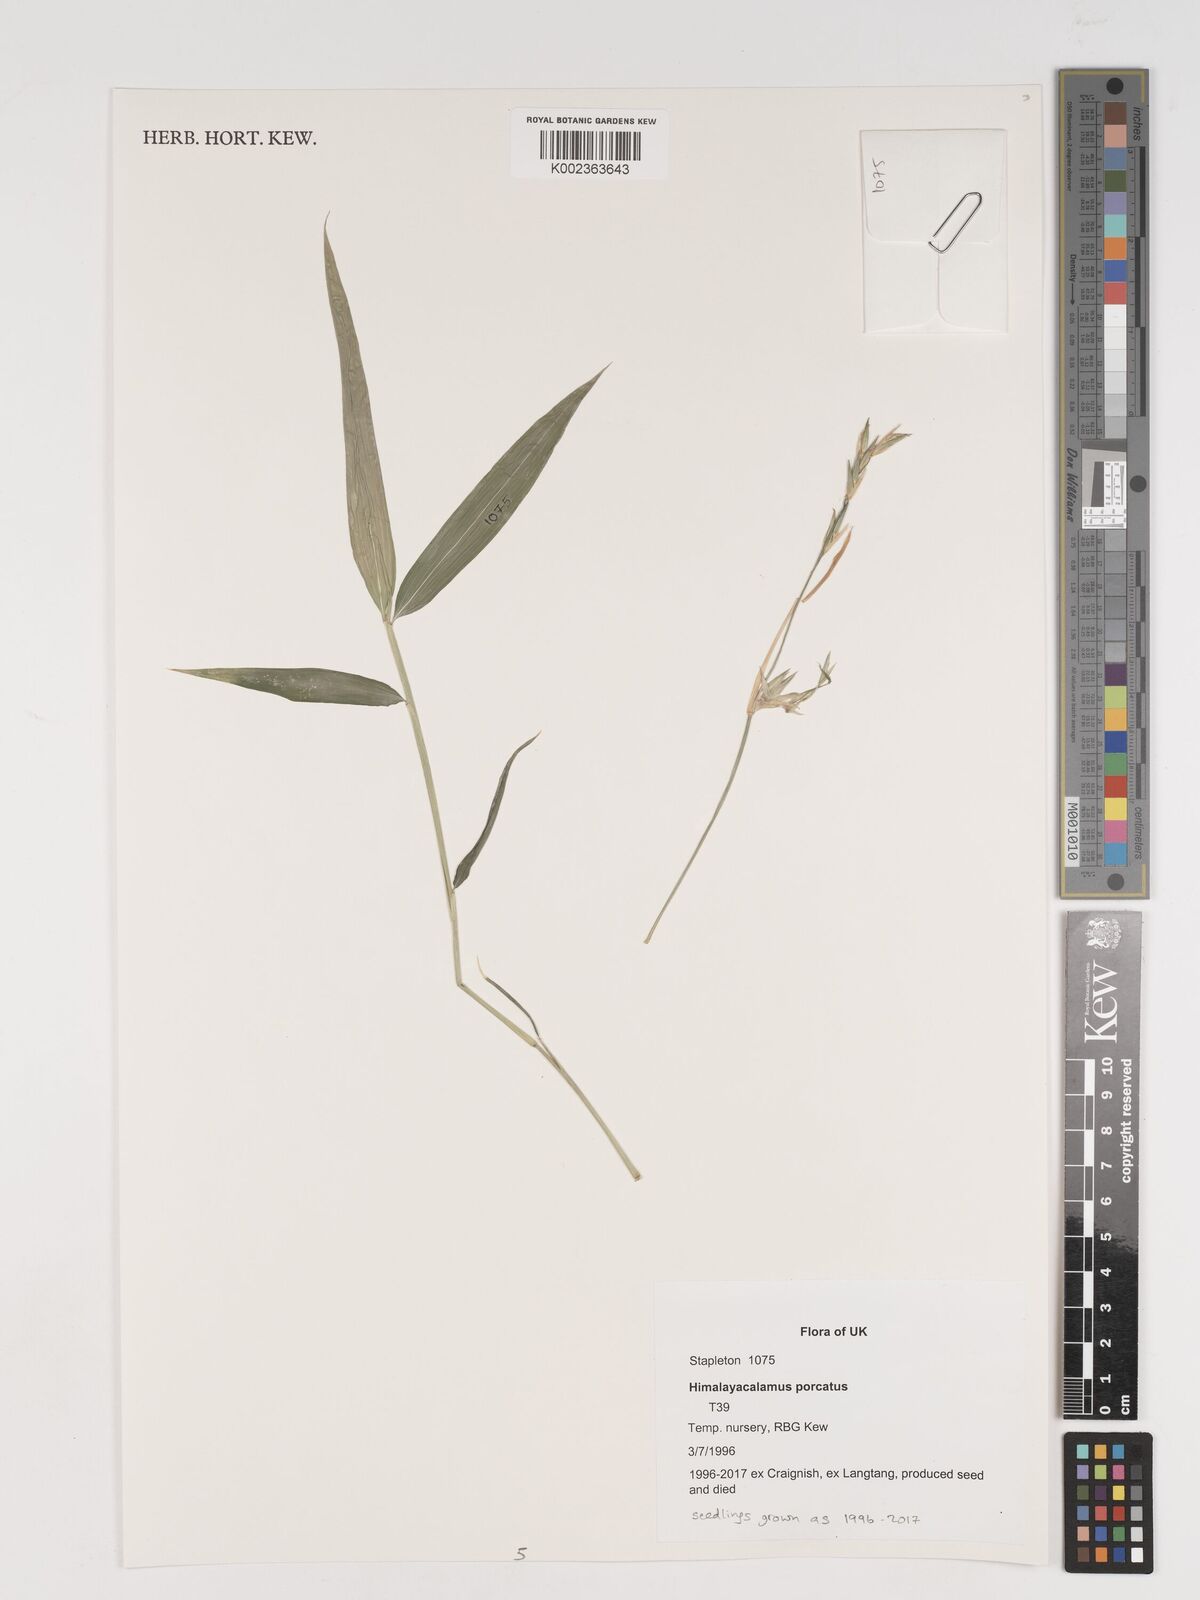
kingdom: Plantae
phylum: Tracheophyta
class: Liliopsida
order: Poales
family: Poaceae
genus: Himalayacalamus
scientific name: Himalayacalamus porcatus
